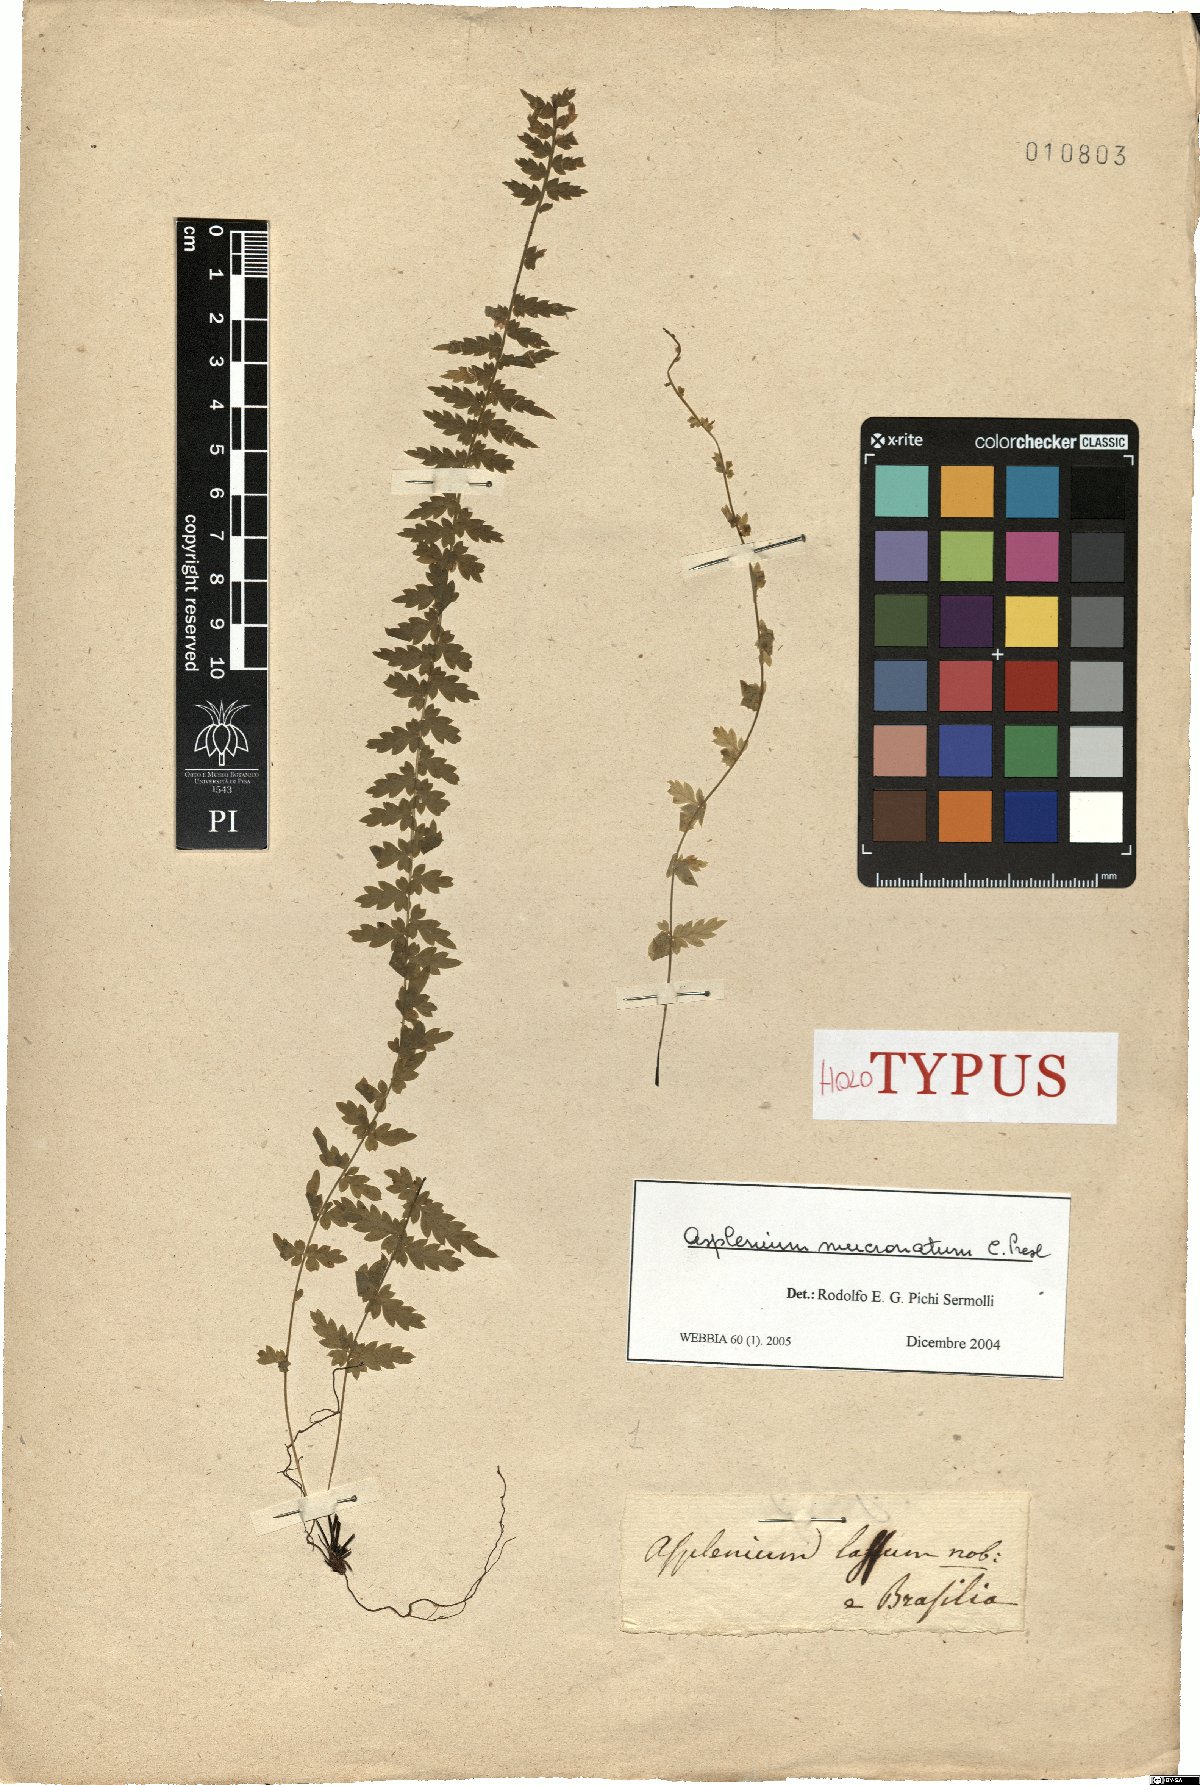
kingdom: Plantae
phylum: Tracheophyta
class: Polypodiopsida
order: Polypodiales
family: Aspleniaceae
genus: Asplenium
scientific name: Asplenium mucronatum
